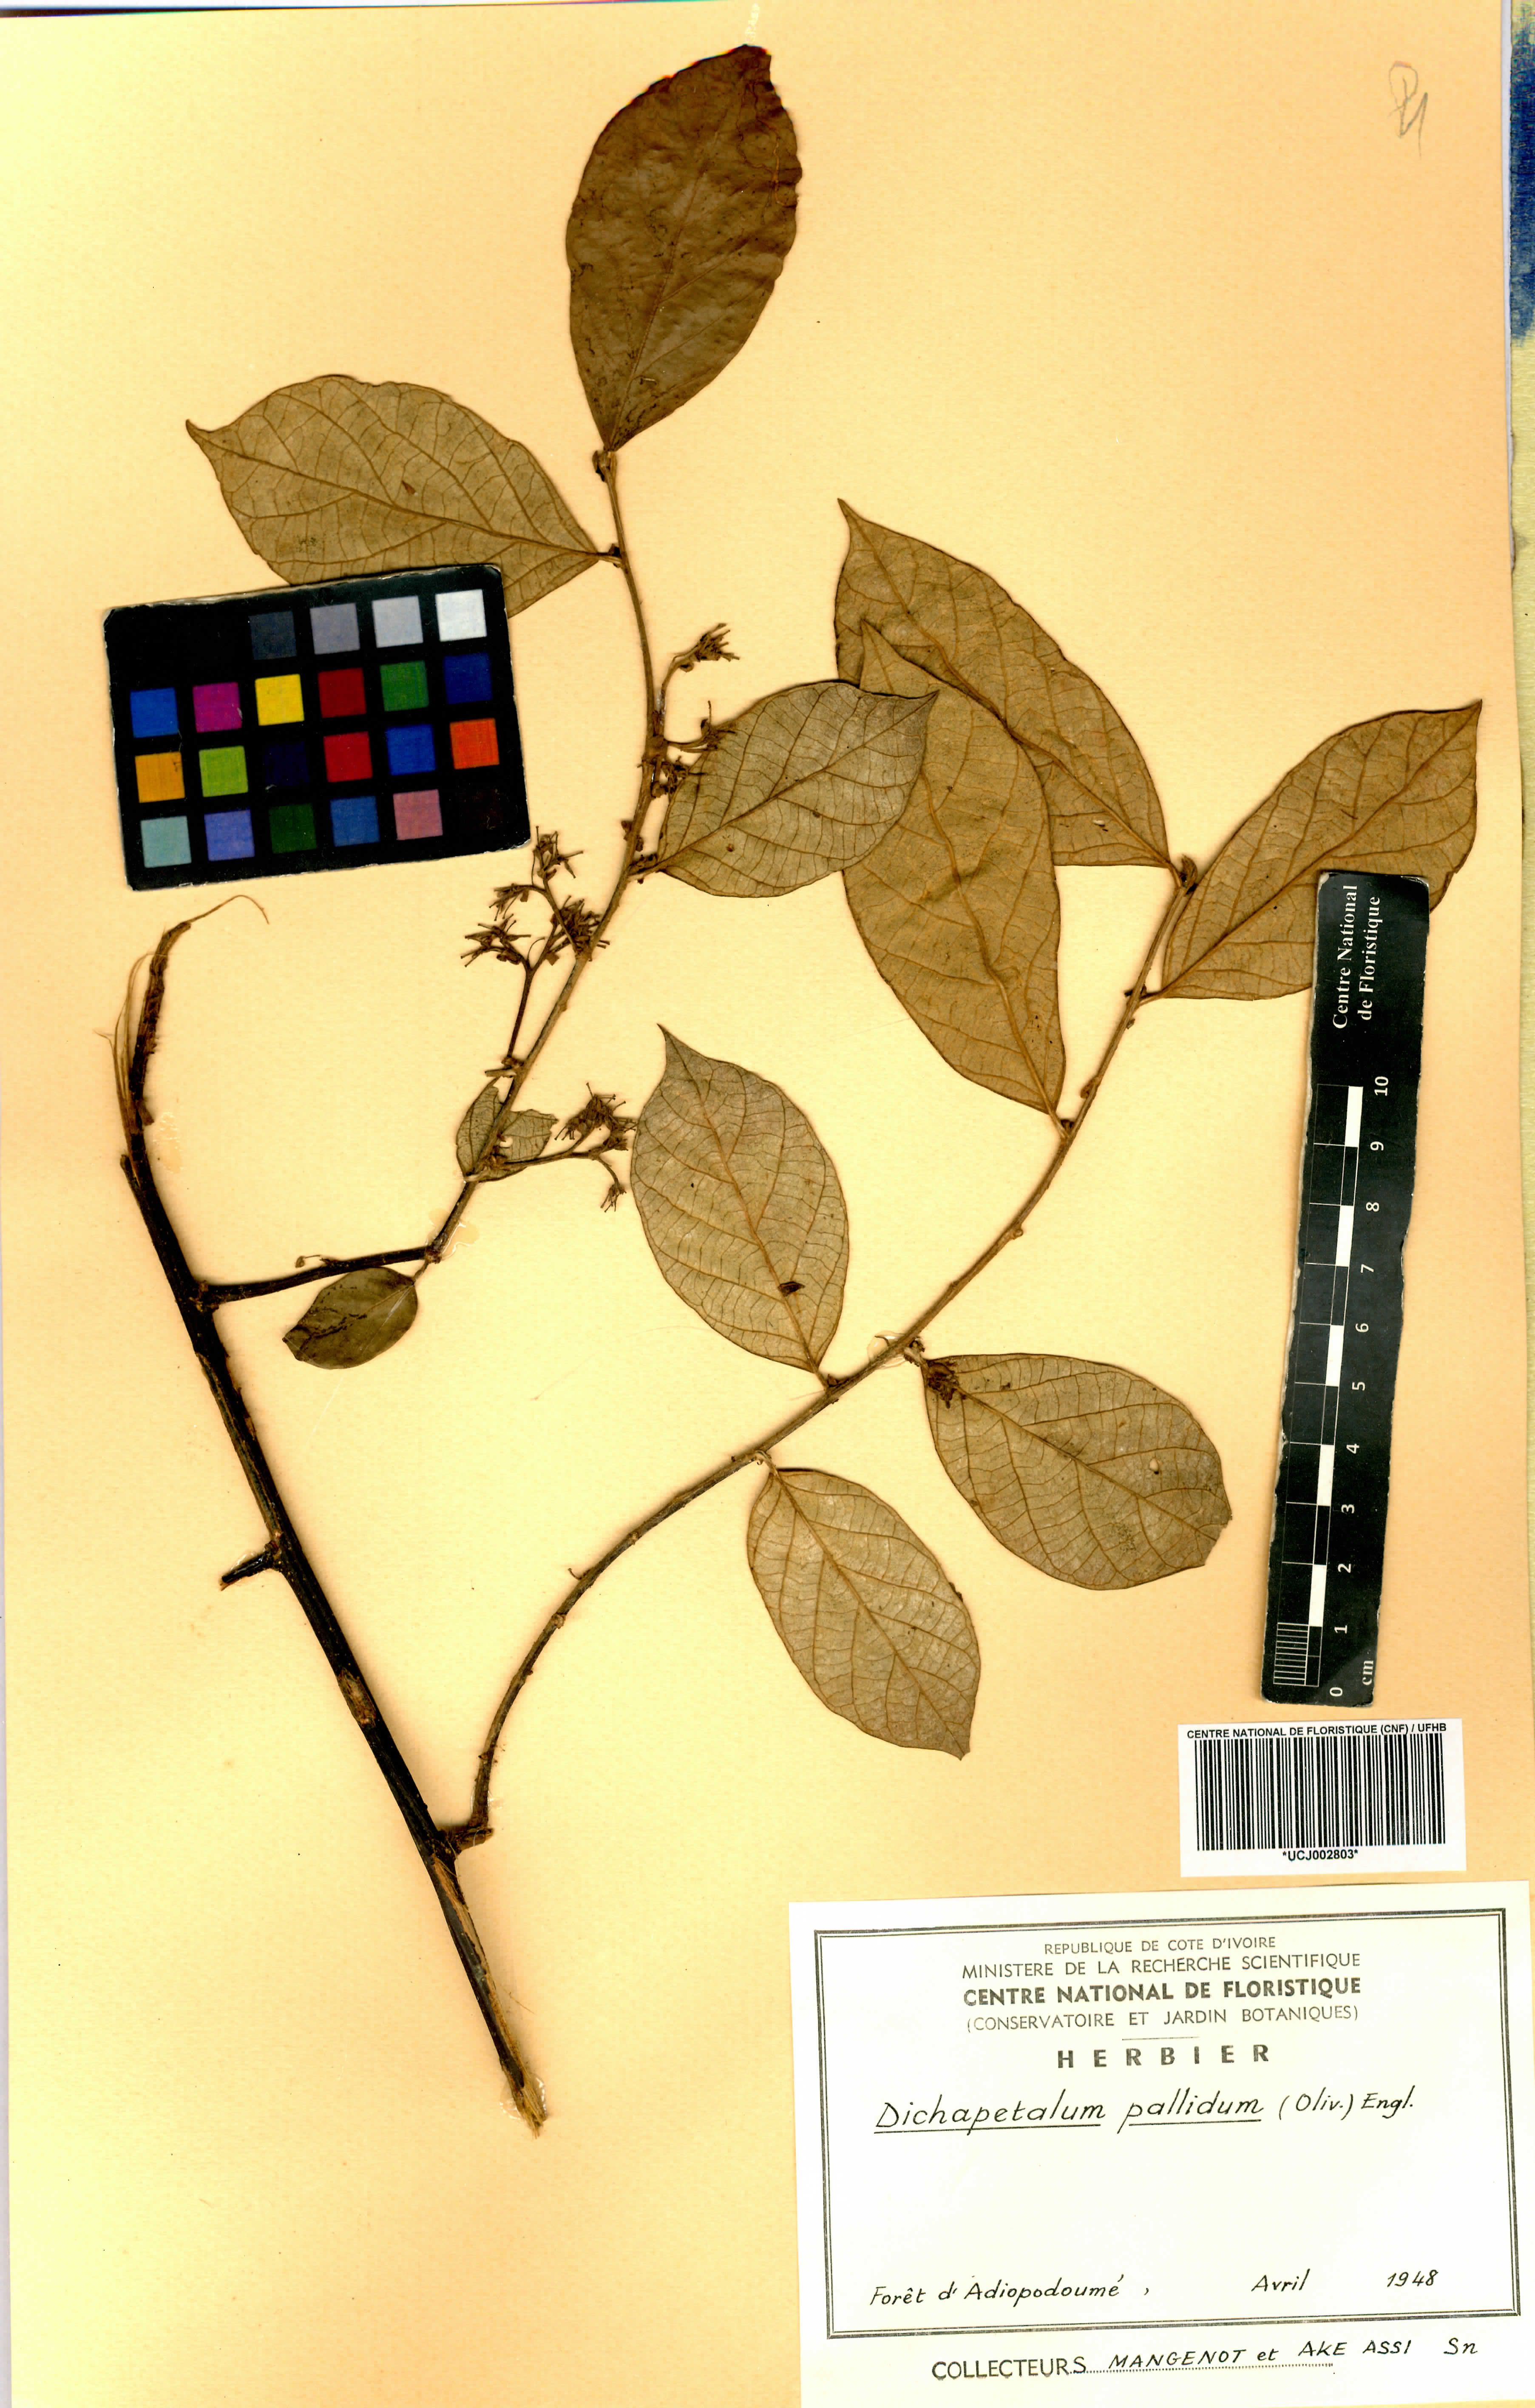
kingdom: Plantae
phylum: Tracheophyta
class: Magnoliopsida
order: Malpighiales
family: Dichapetalaceae
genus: Dichapetalum
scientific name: Dichapetalum pallidum
